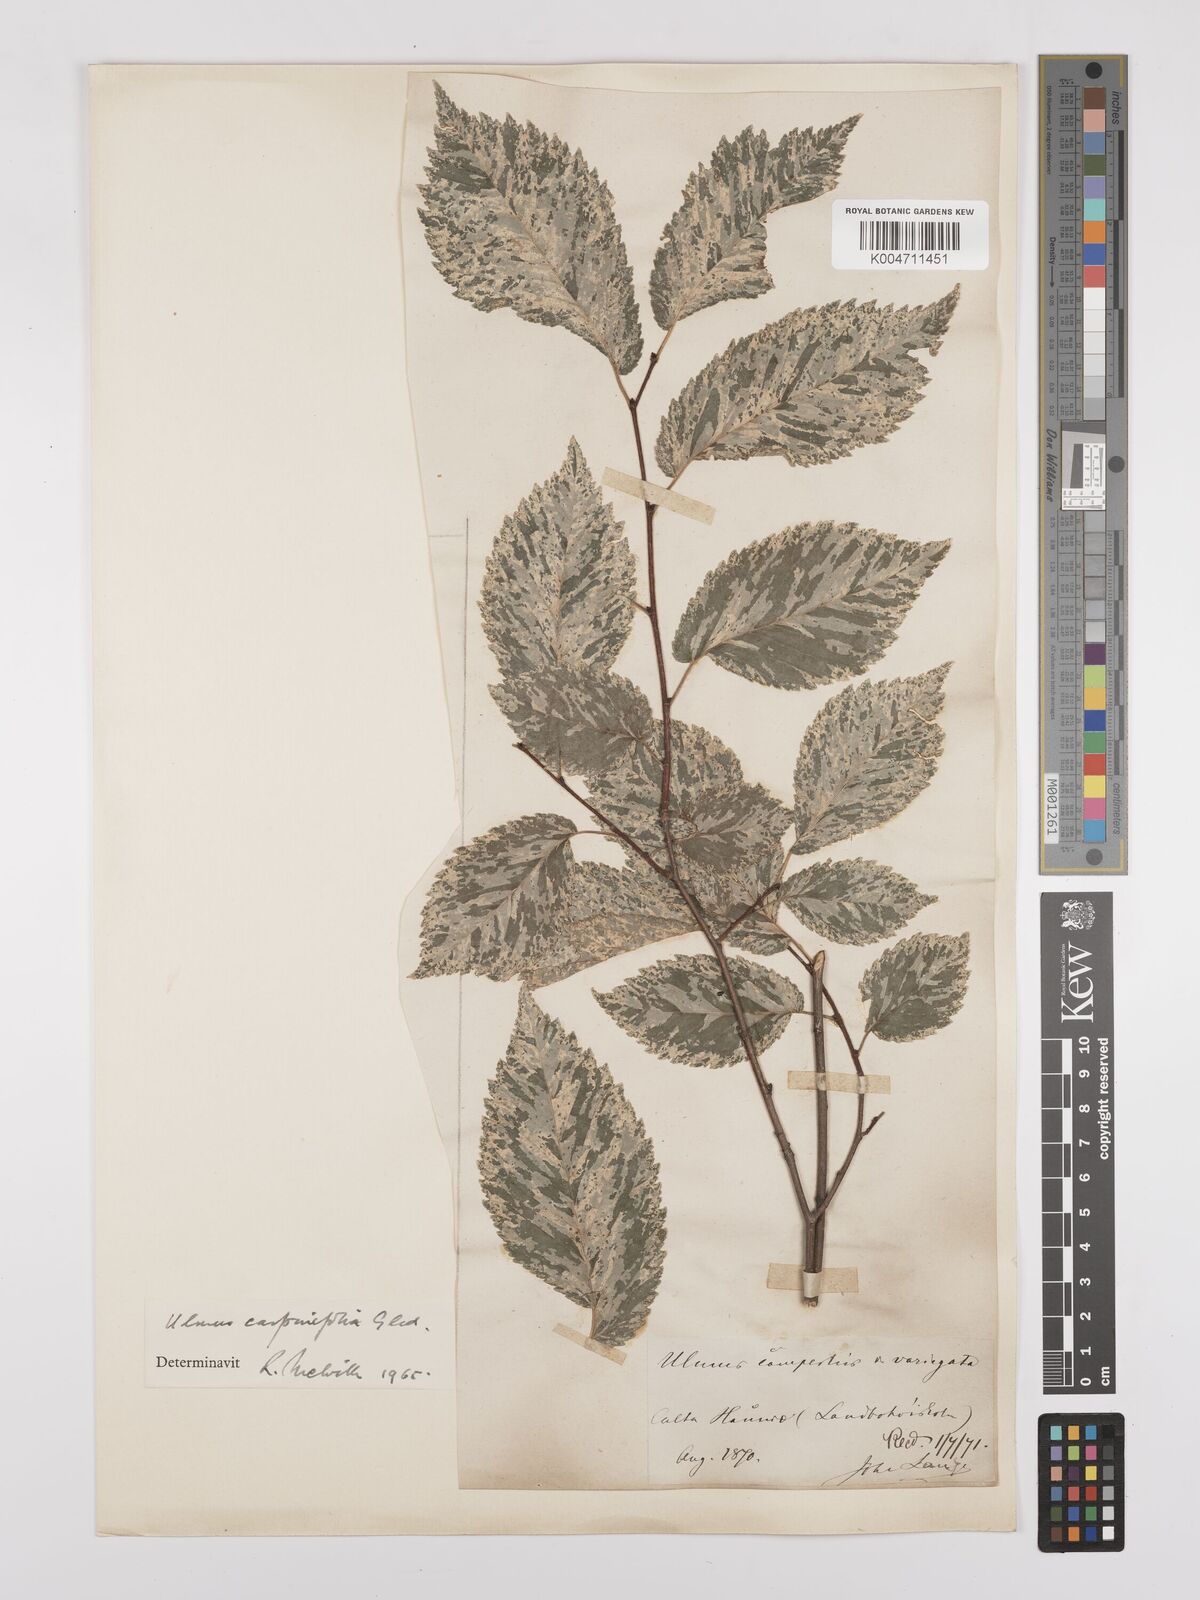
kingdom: Plantae
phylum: Tracheophyta
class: Magnoliopsida
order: Rosales
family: Ulmaceae
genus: Ulmus
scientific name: Ulmus minor
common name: Small-leaved elm
